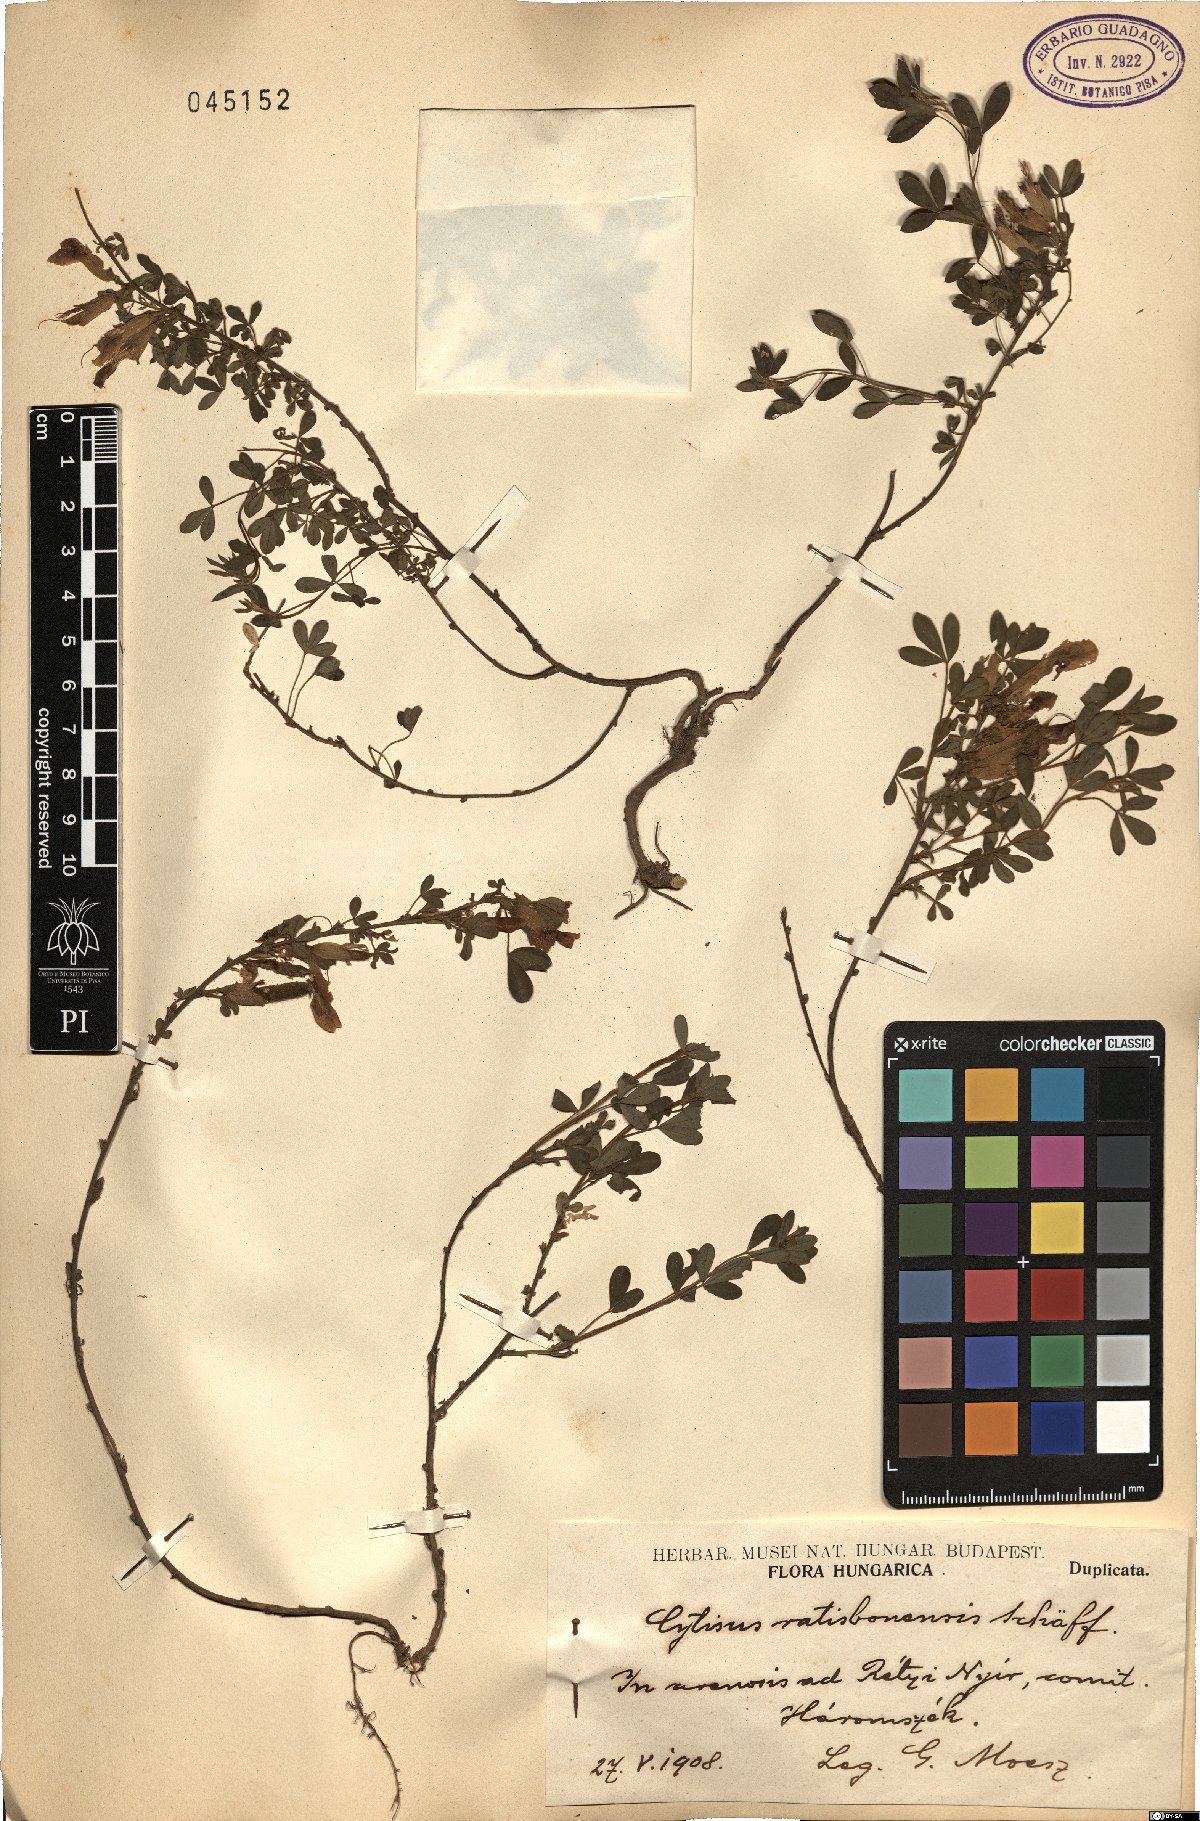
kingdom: Plantae
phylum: Tracheophyta
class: Magnoliopsida
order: Fabales
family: Fabaceae
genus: Chamaecytisus
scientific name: Chamaecytisus ratisbonensis
